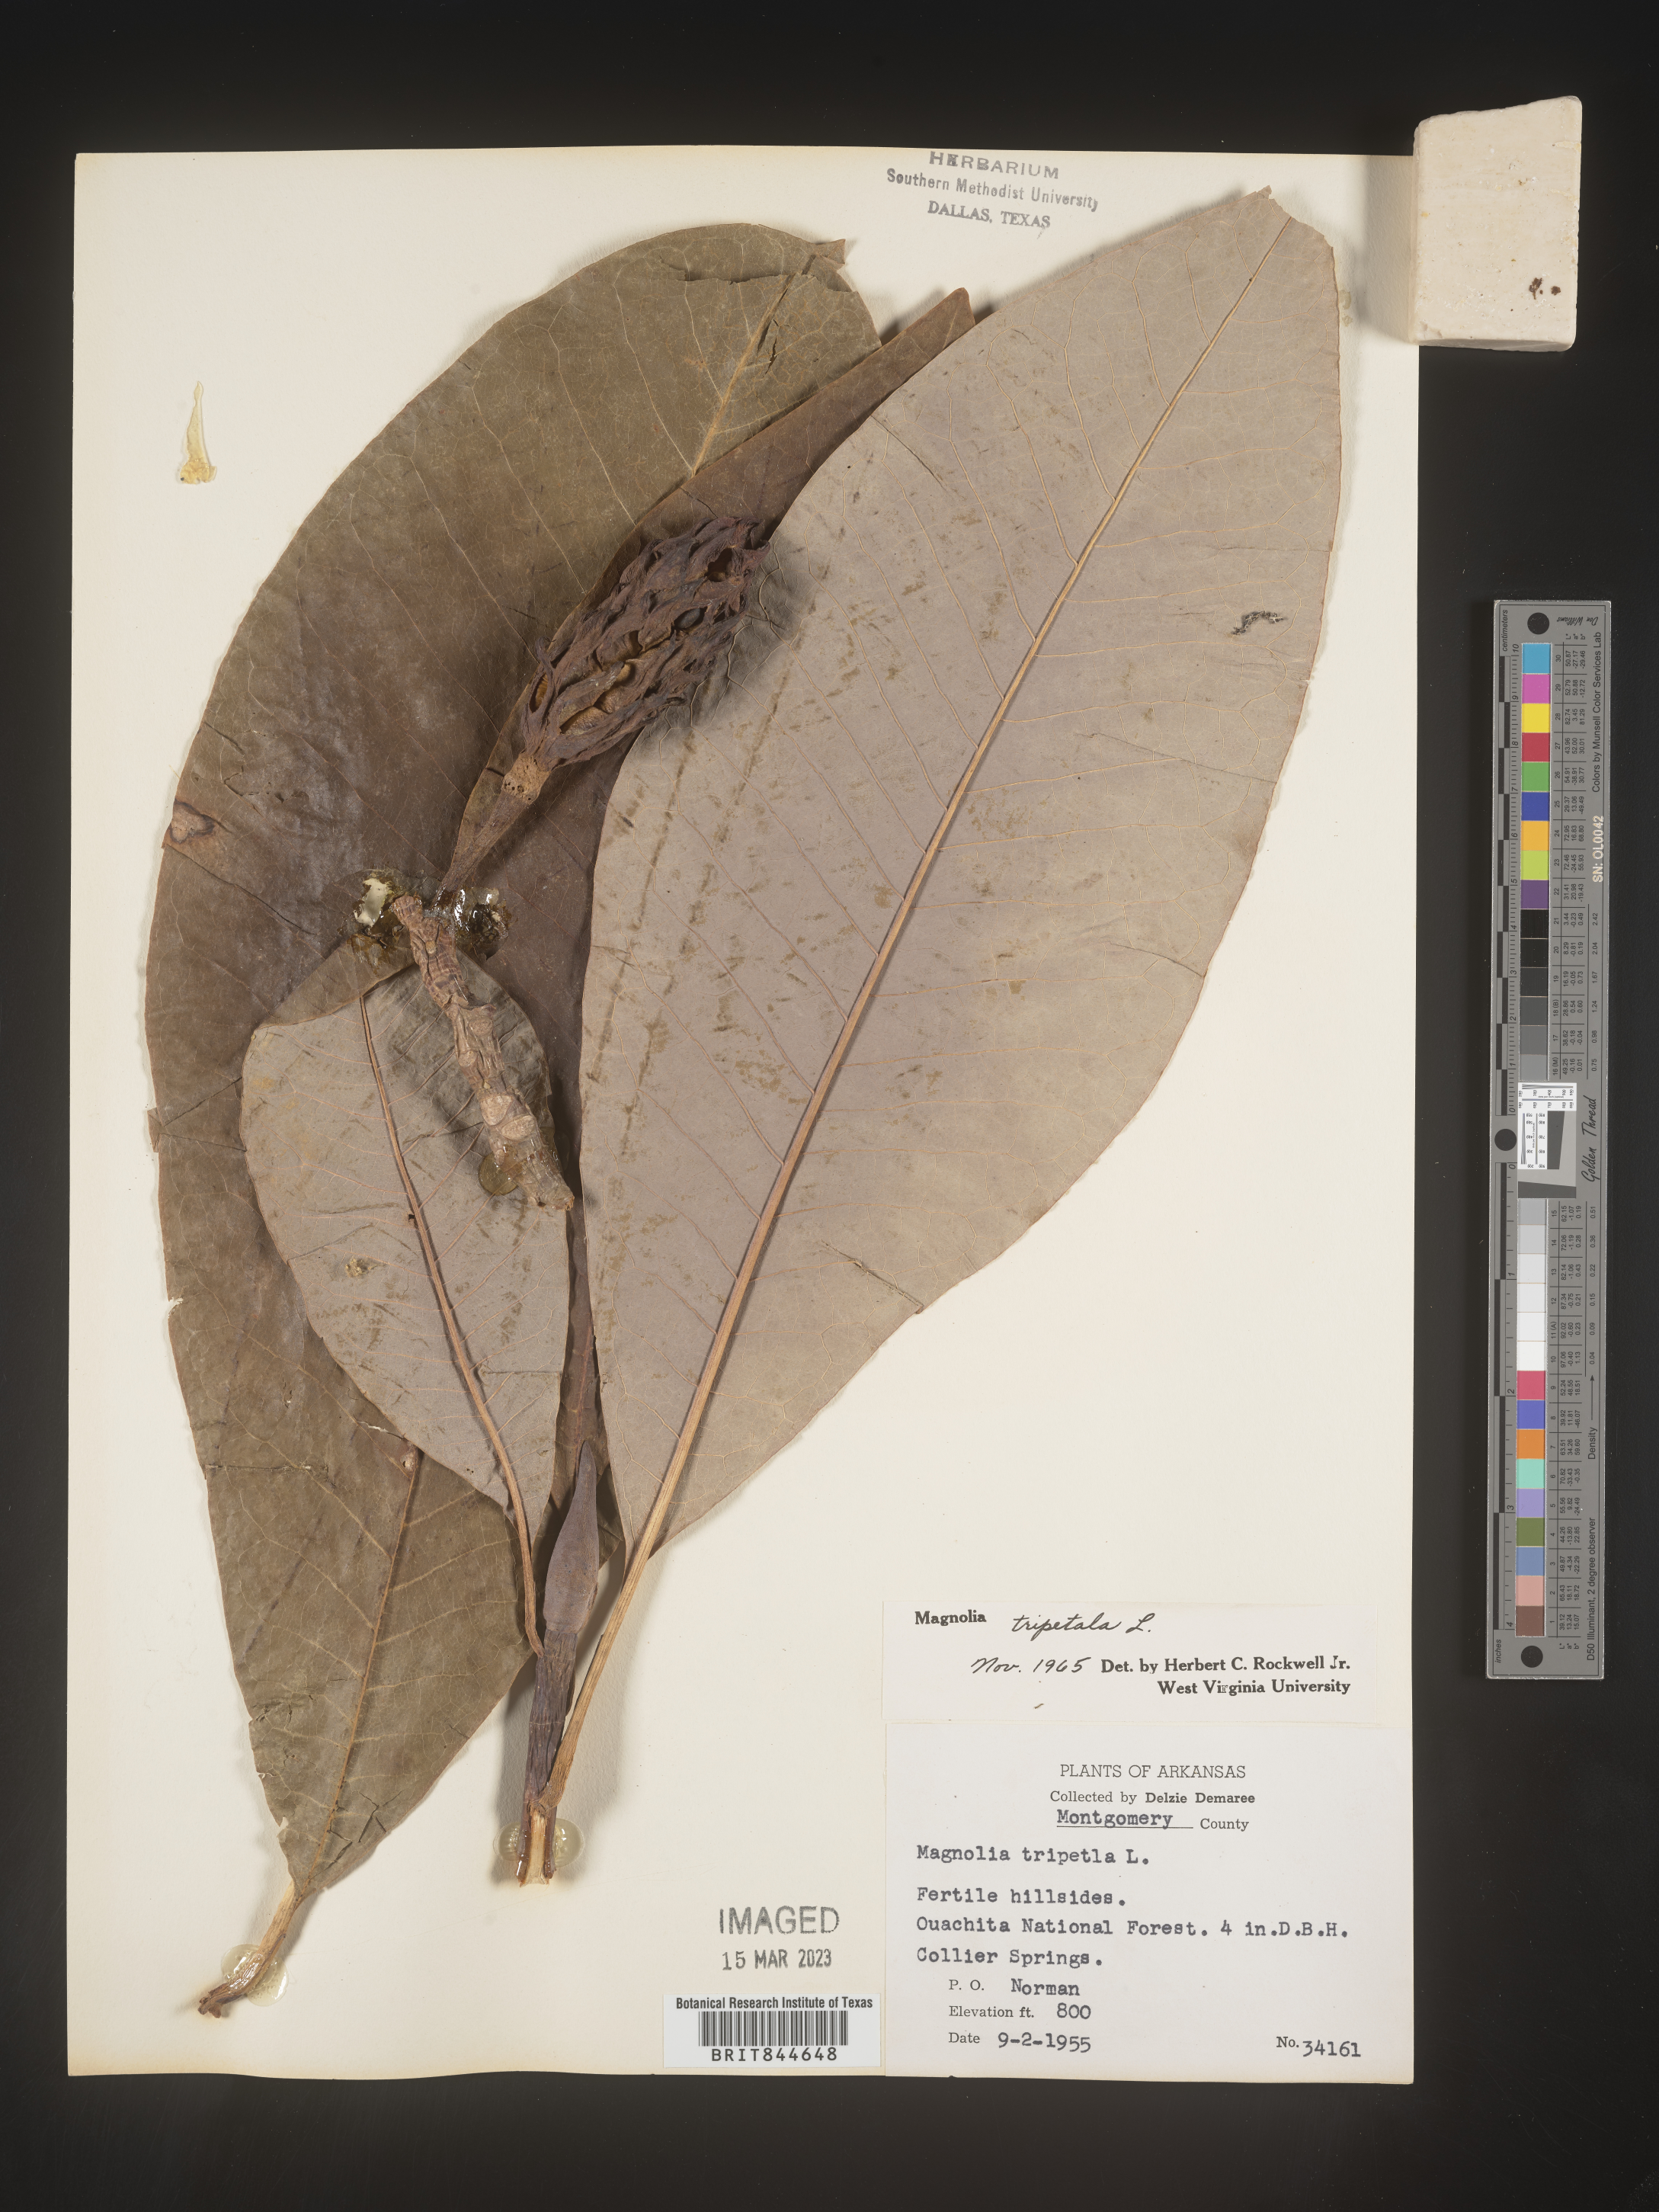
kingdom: Plantae
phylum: Tracheophyta
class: Magnoliopsida
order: Magnoliales
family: Magnoliaceae
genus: Magnolia
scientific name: Magnolia tripetala
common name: Umbrella magnolia
